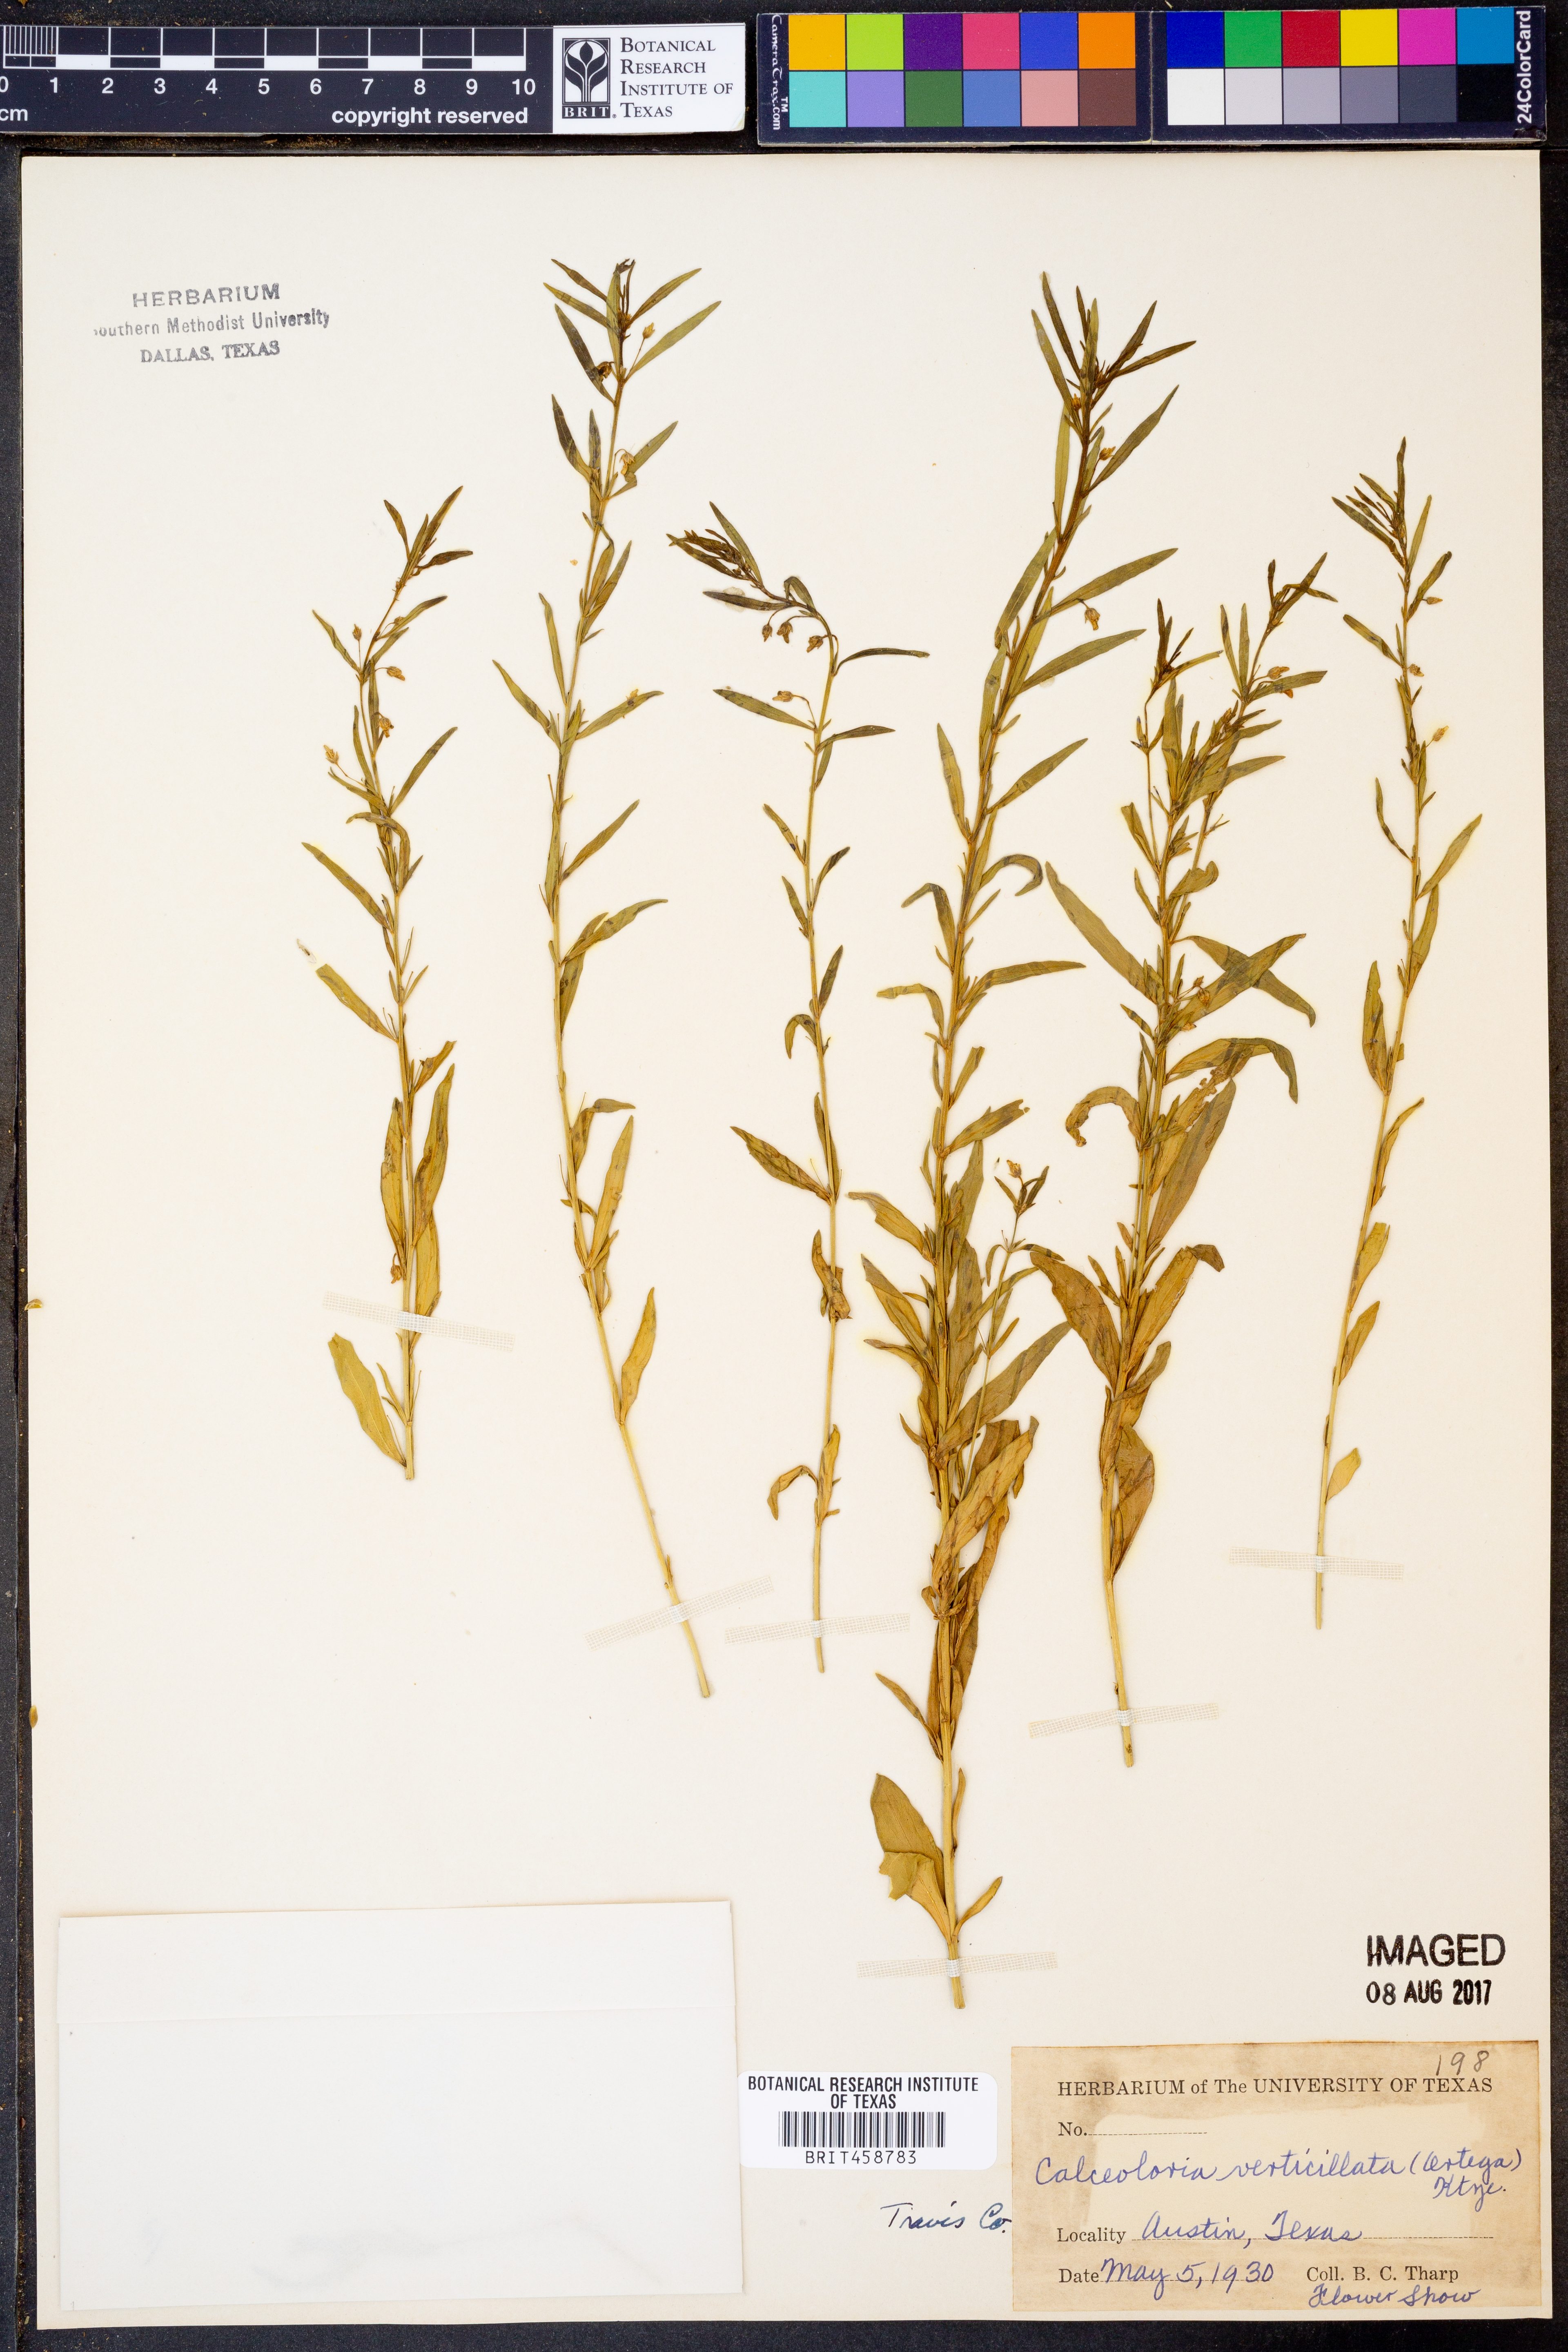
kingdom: Plantae
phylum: Tracheophyta
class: Magnoliopsida
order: Malpighiales
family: Violaceae
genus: Pombalia
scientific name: Pombalia verticillata
